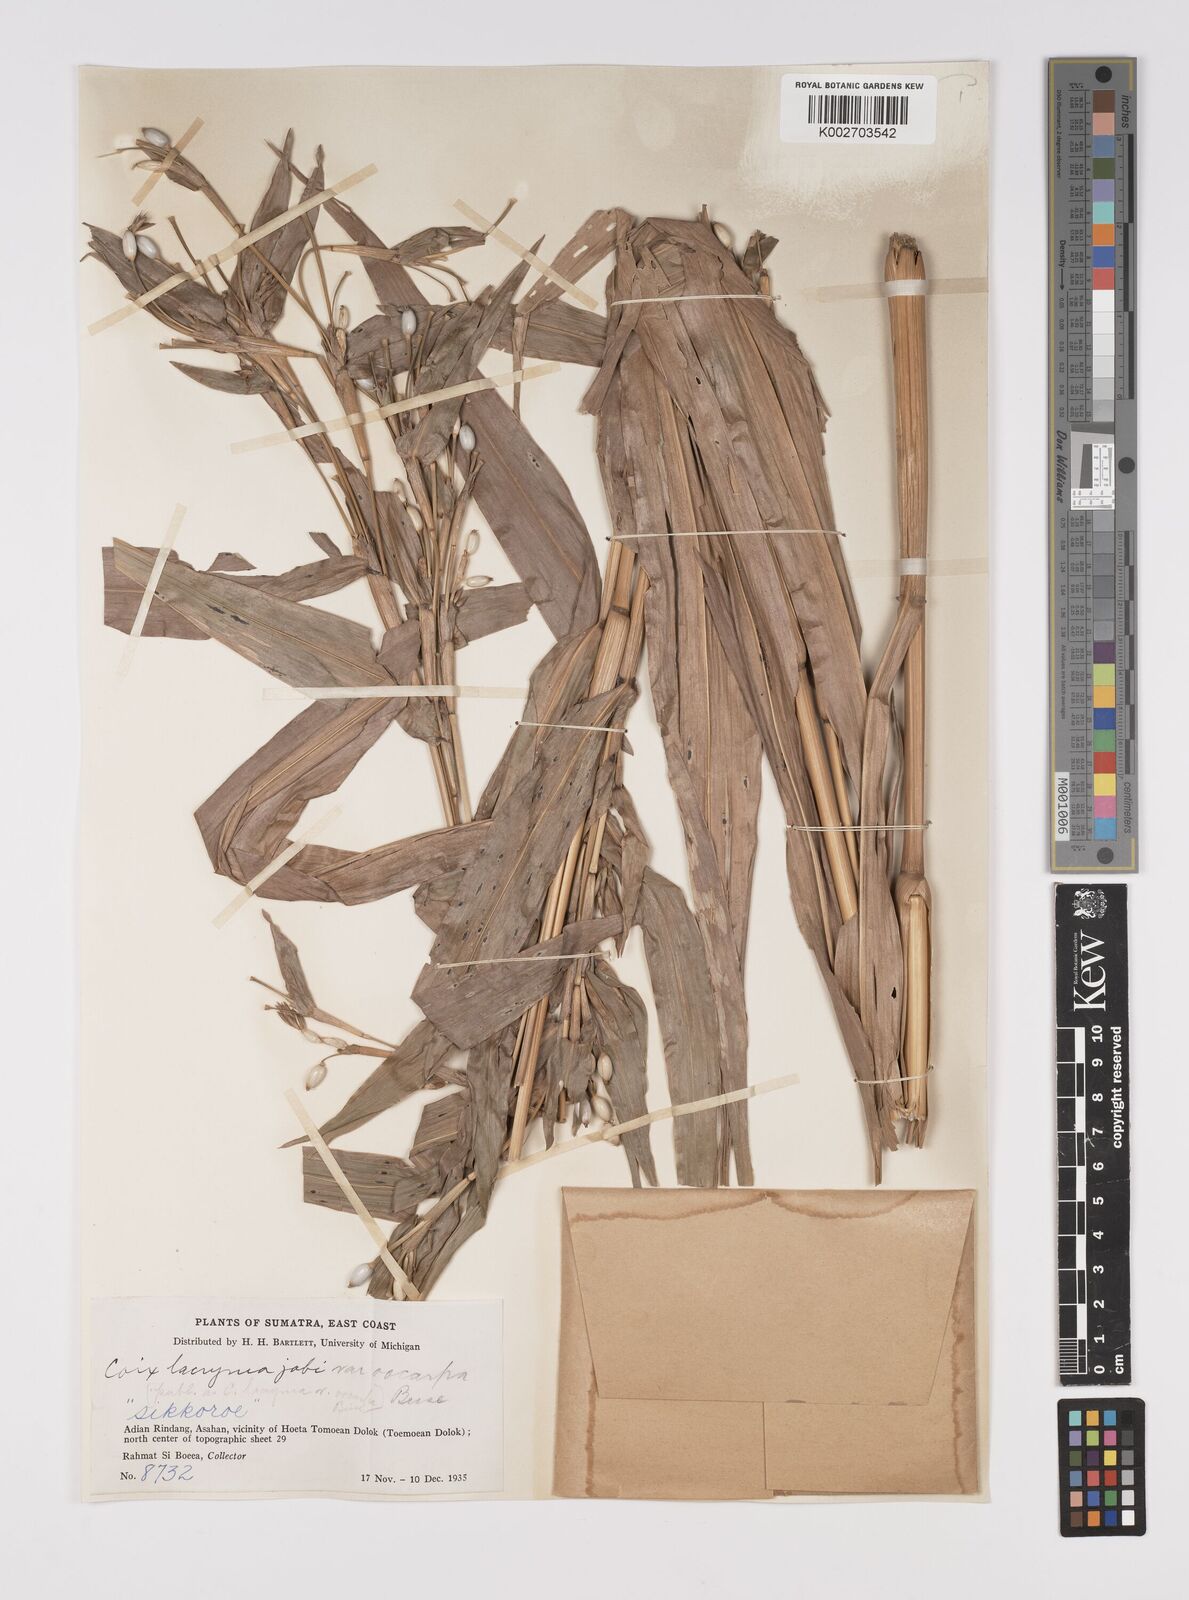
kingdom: Plantae
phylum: Tracheophyta
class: Liliopsida
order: Poales
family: Poaceae
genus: Coix
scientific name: Coix lacryma-jobi
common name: Job's tears
